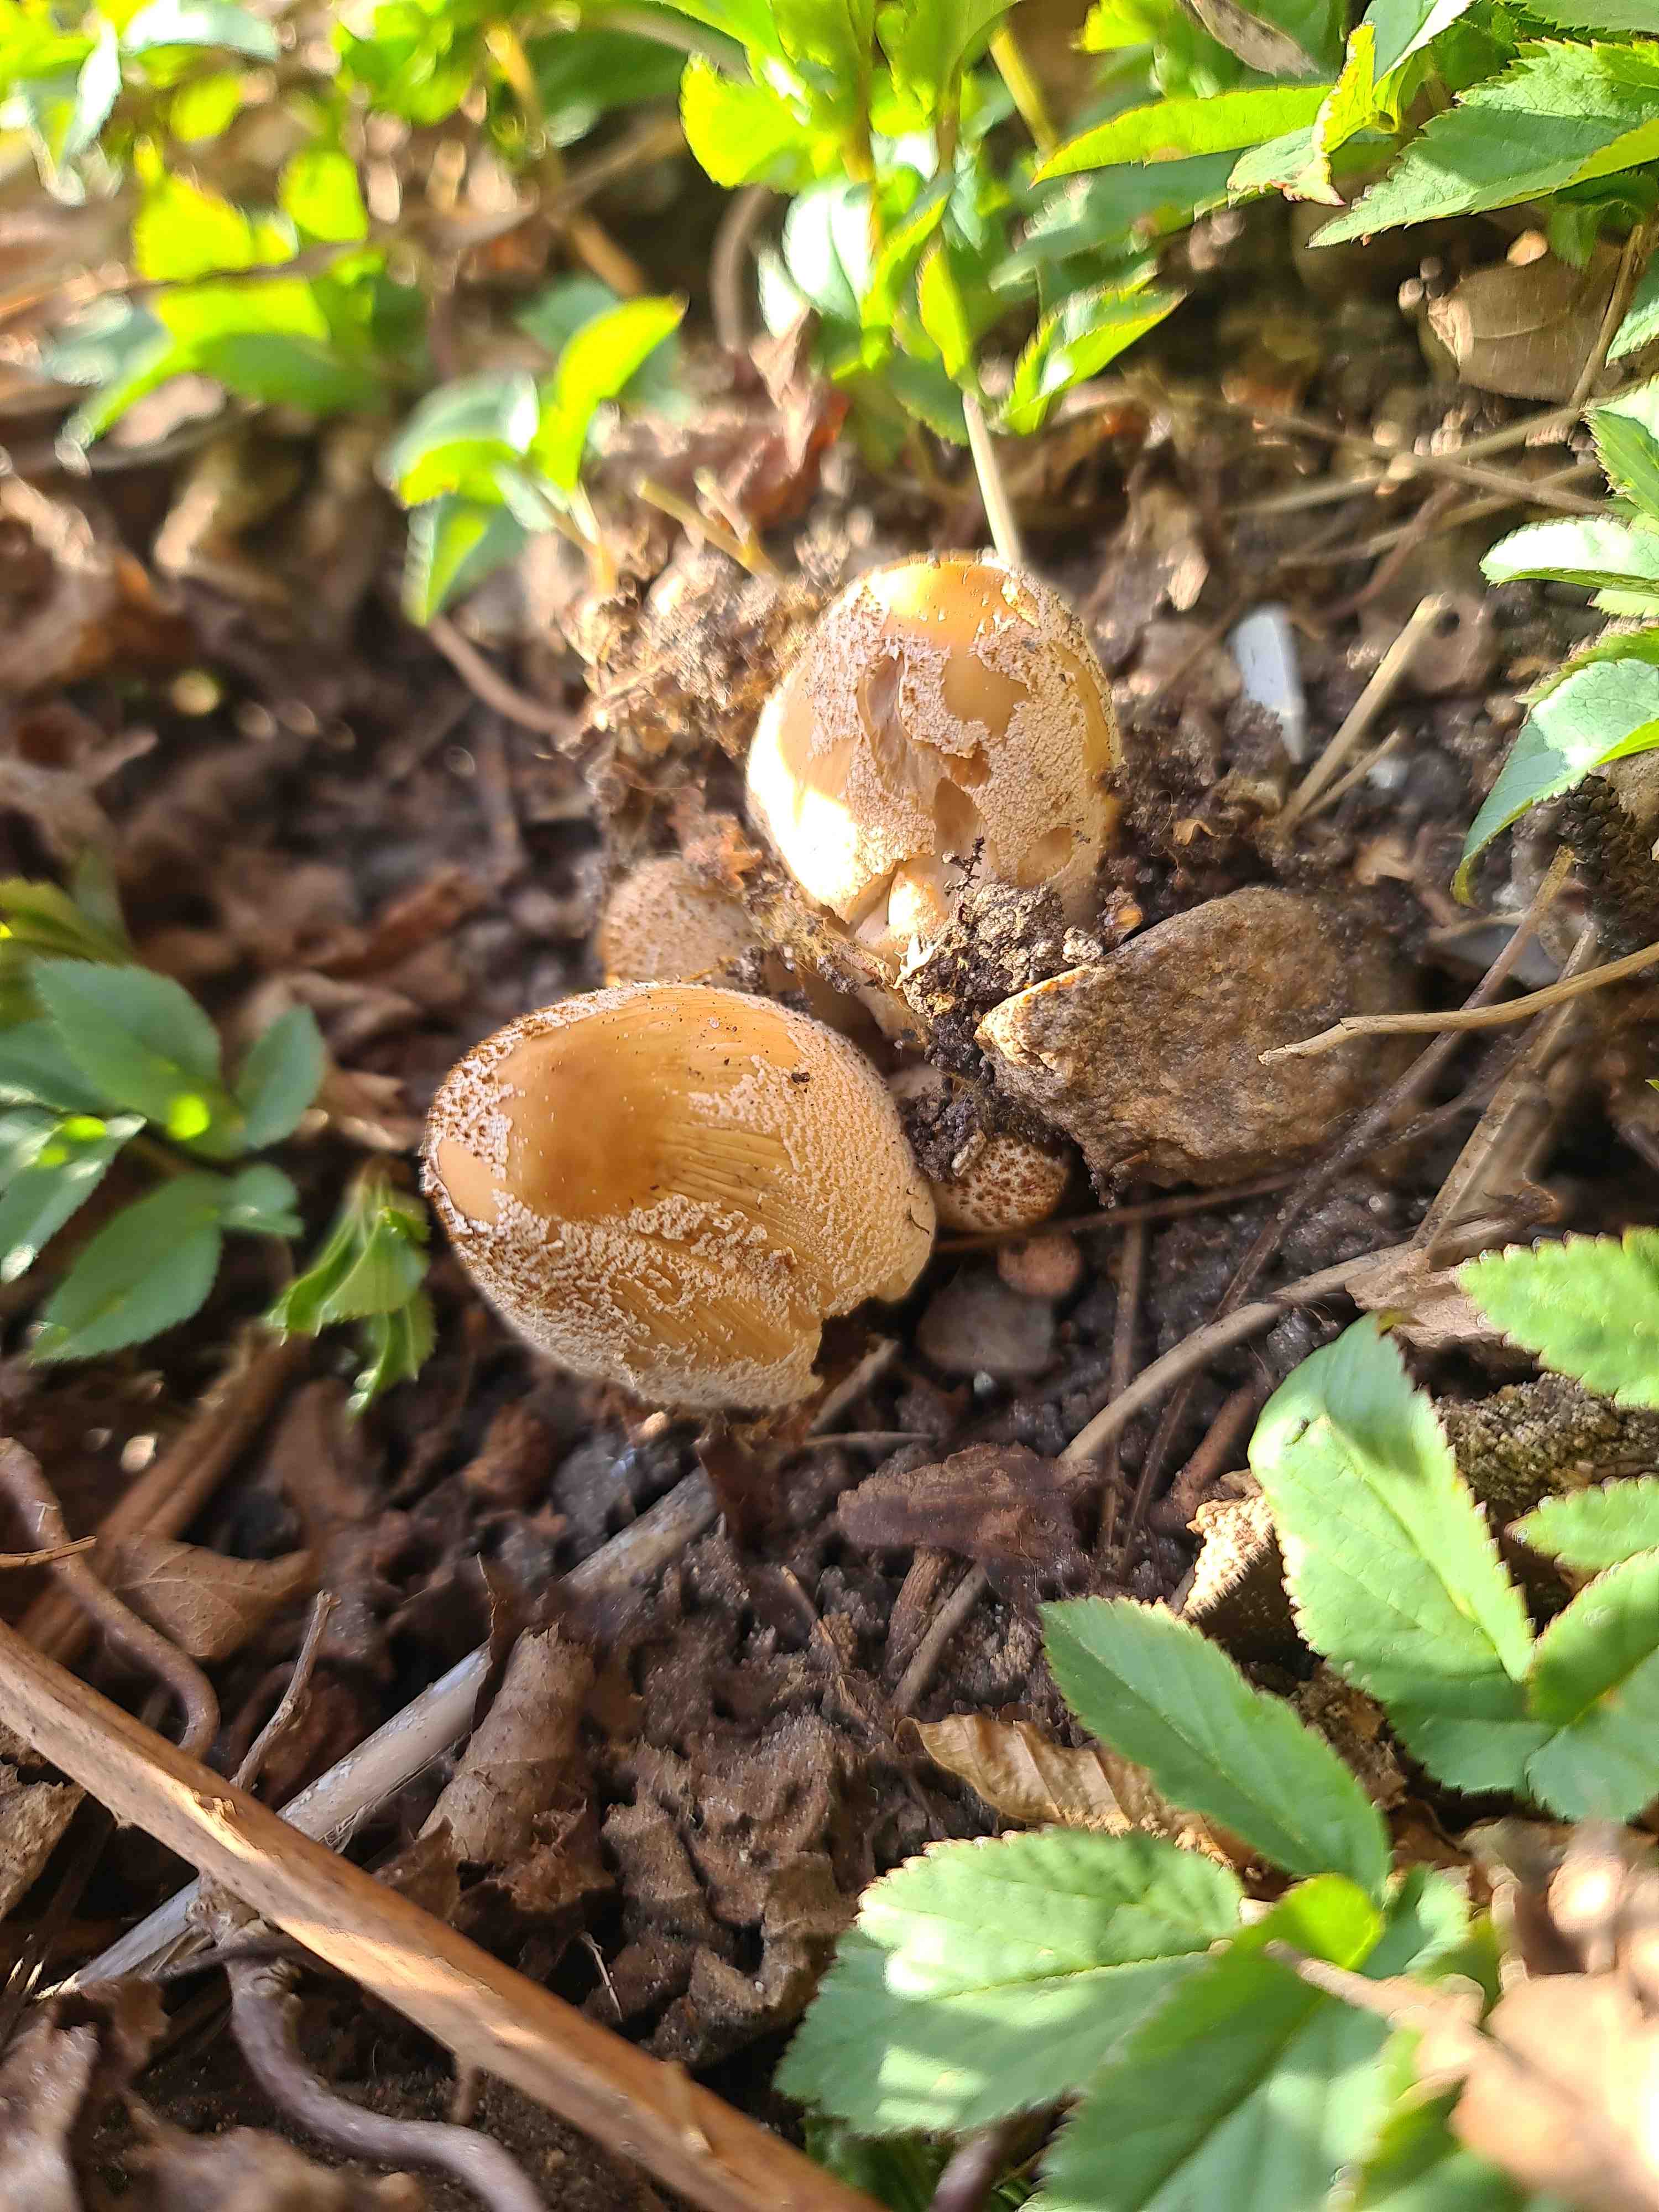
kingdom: Fungi
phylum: Basidiomycota
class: Agaricomycetes
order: Agaricales
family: Psathyrellaceae
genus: Coprinellus
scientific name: Coprinellus
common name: blækhat
